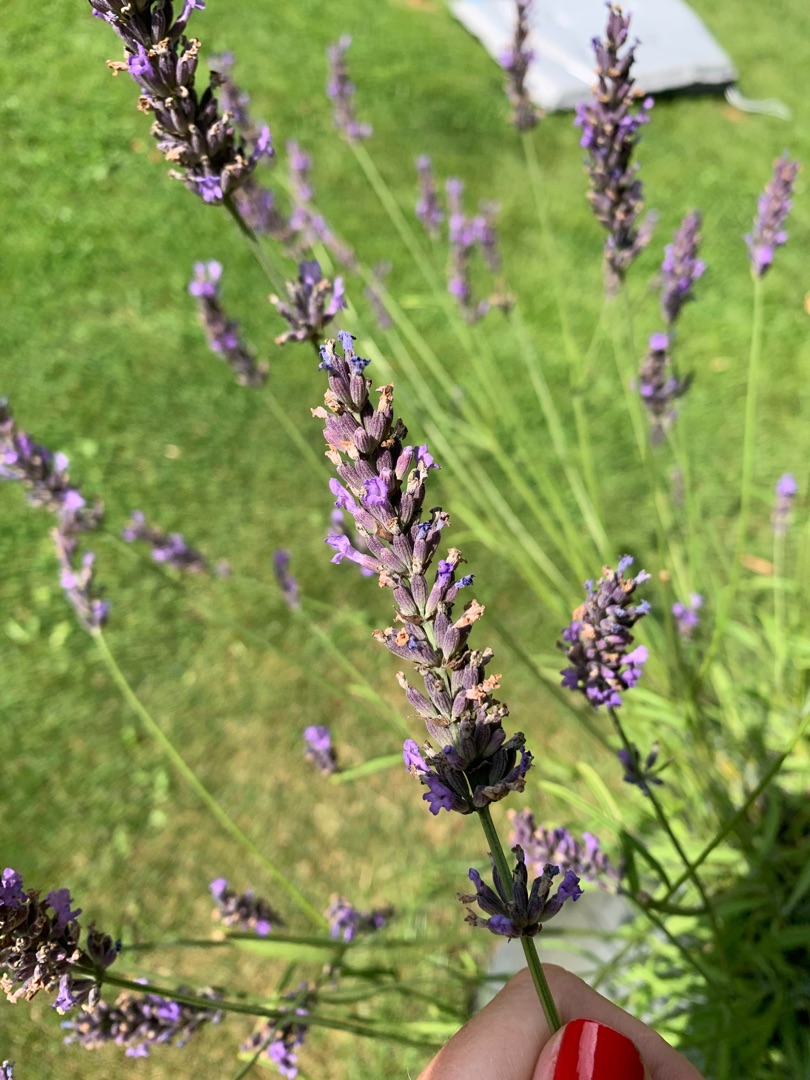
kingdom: Plantae
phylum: Tracheophyta
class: Magnoliopsida
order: Lamiales
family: Lamiaceae
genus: Lavandula
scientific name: Lavandula angustifolia
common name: Ægte lavendel
